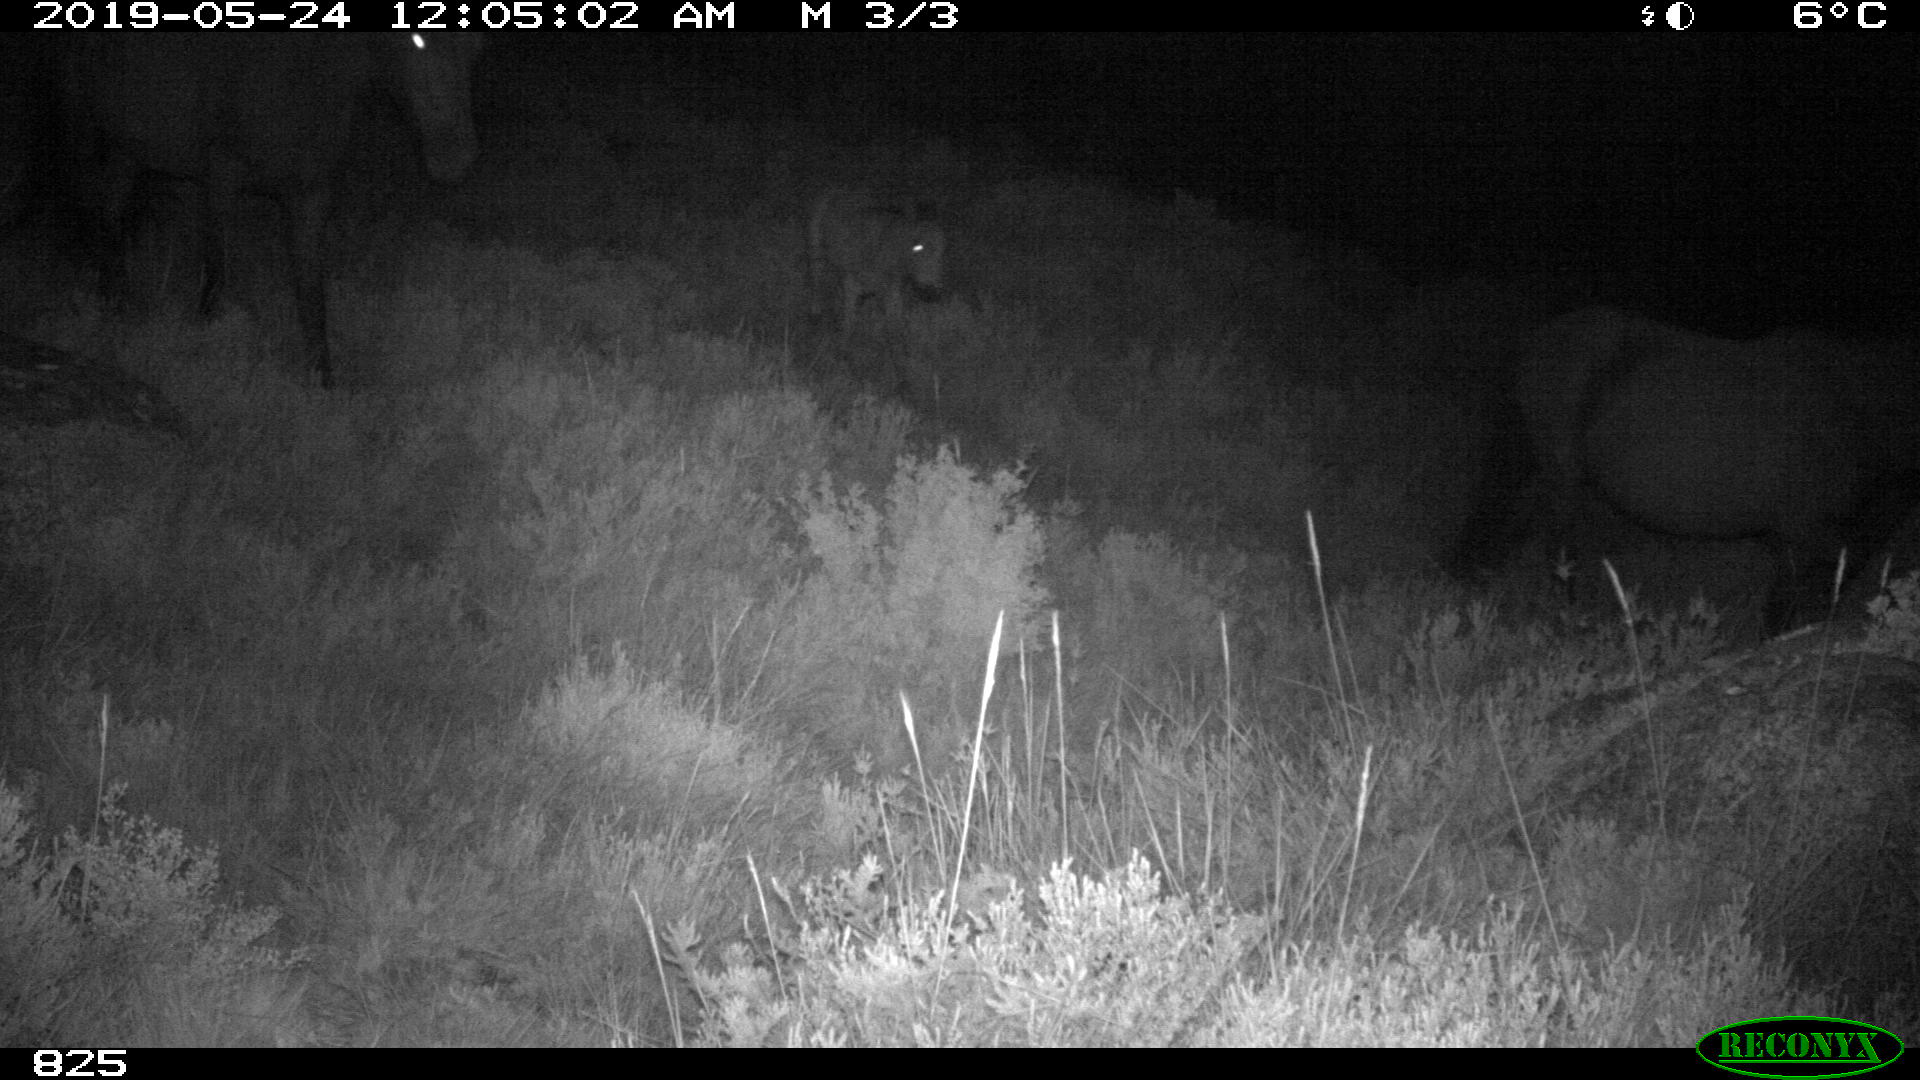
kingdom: Animalia
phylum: Chordata
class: Mammalia
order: Perissodactyla
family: Equidae
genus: Equus
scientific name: Equus caballus
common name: Horse
